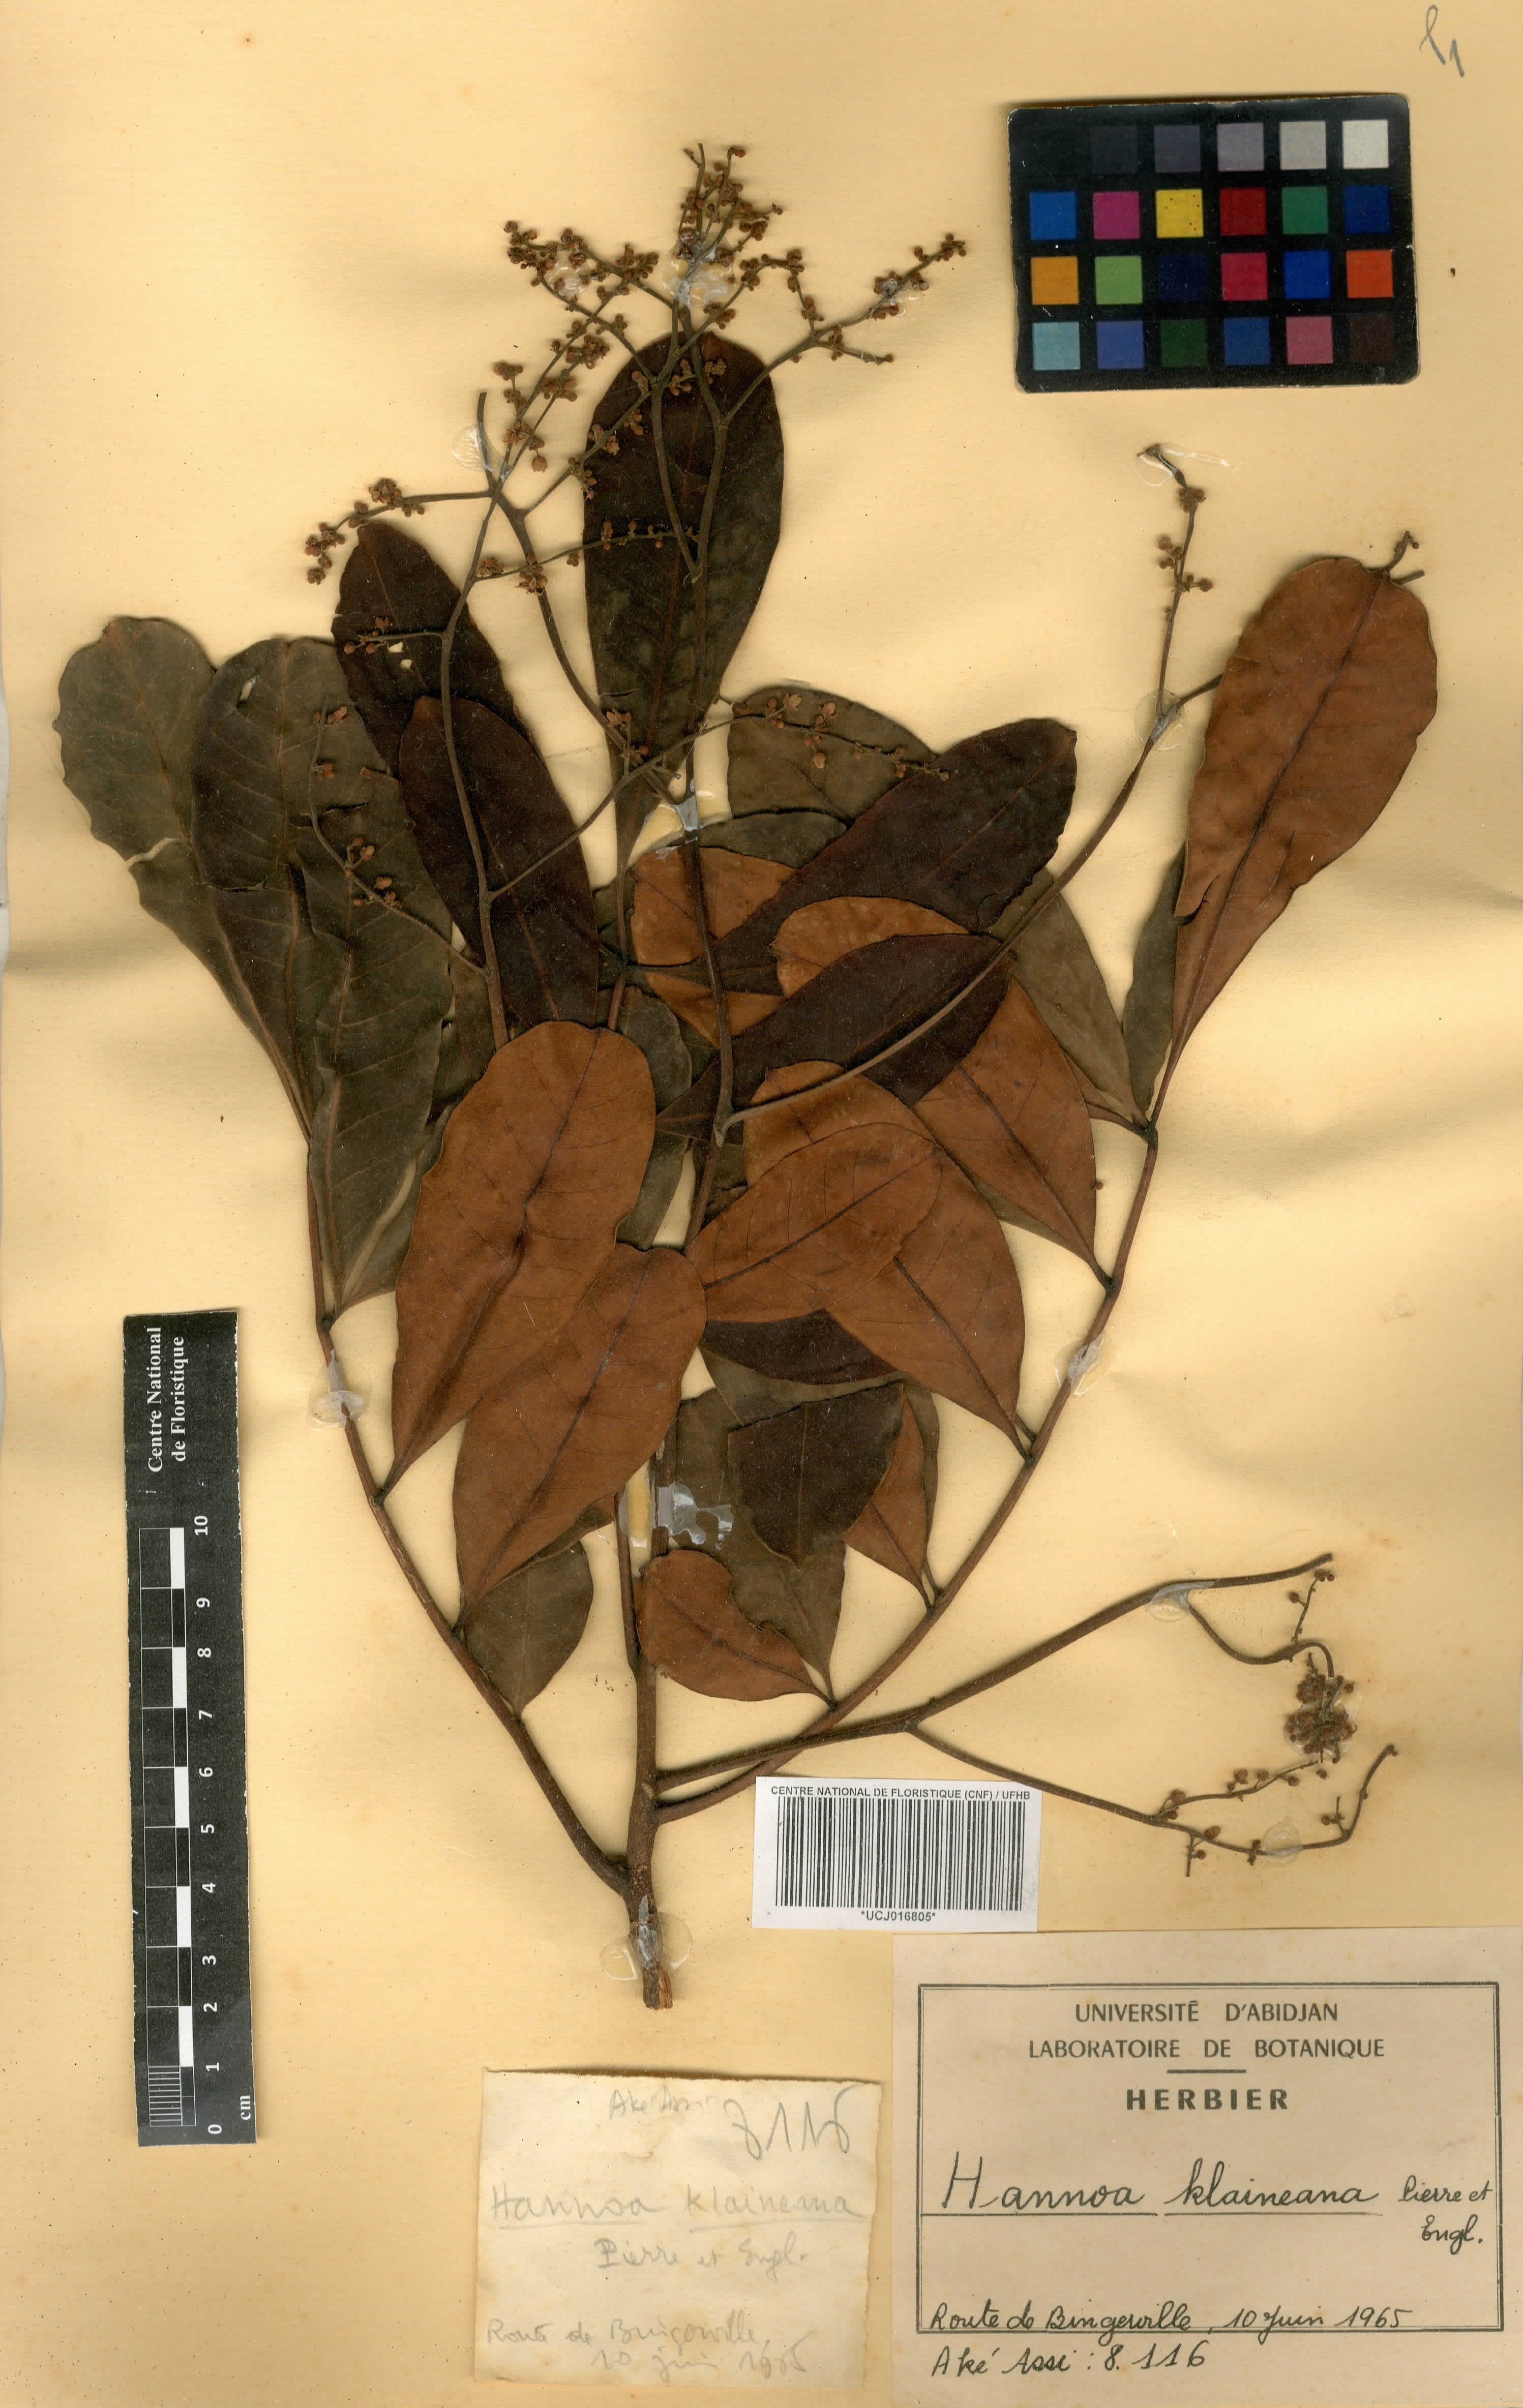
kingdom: Plantae
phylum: Tracheophyta
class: Magnoliopsida
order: Sapindales
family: Simaroubaceae
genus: Odyendyea
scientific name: Odyendyea klaineana
